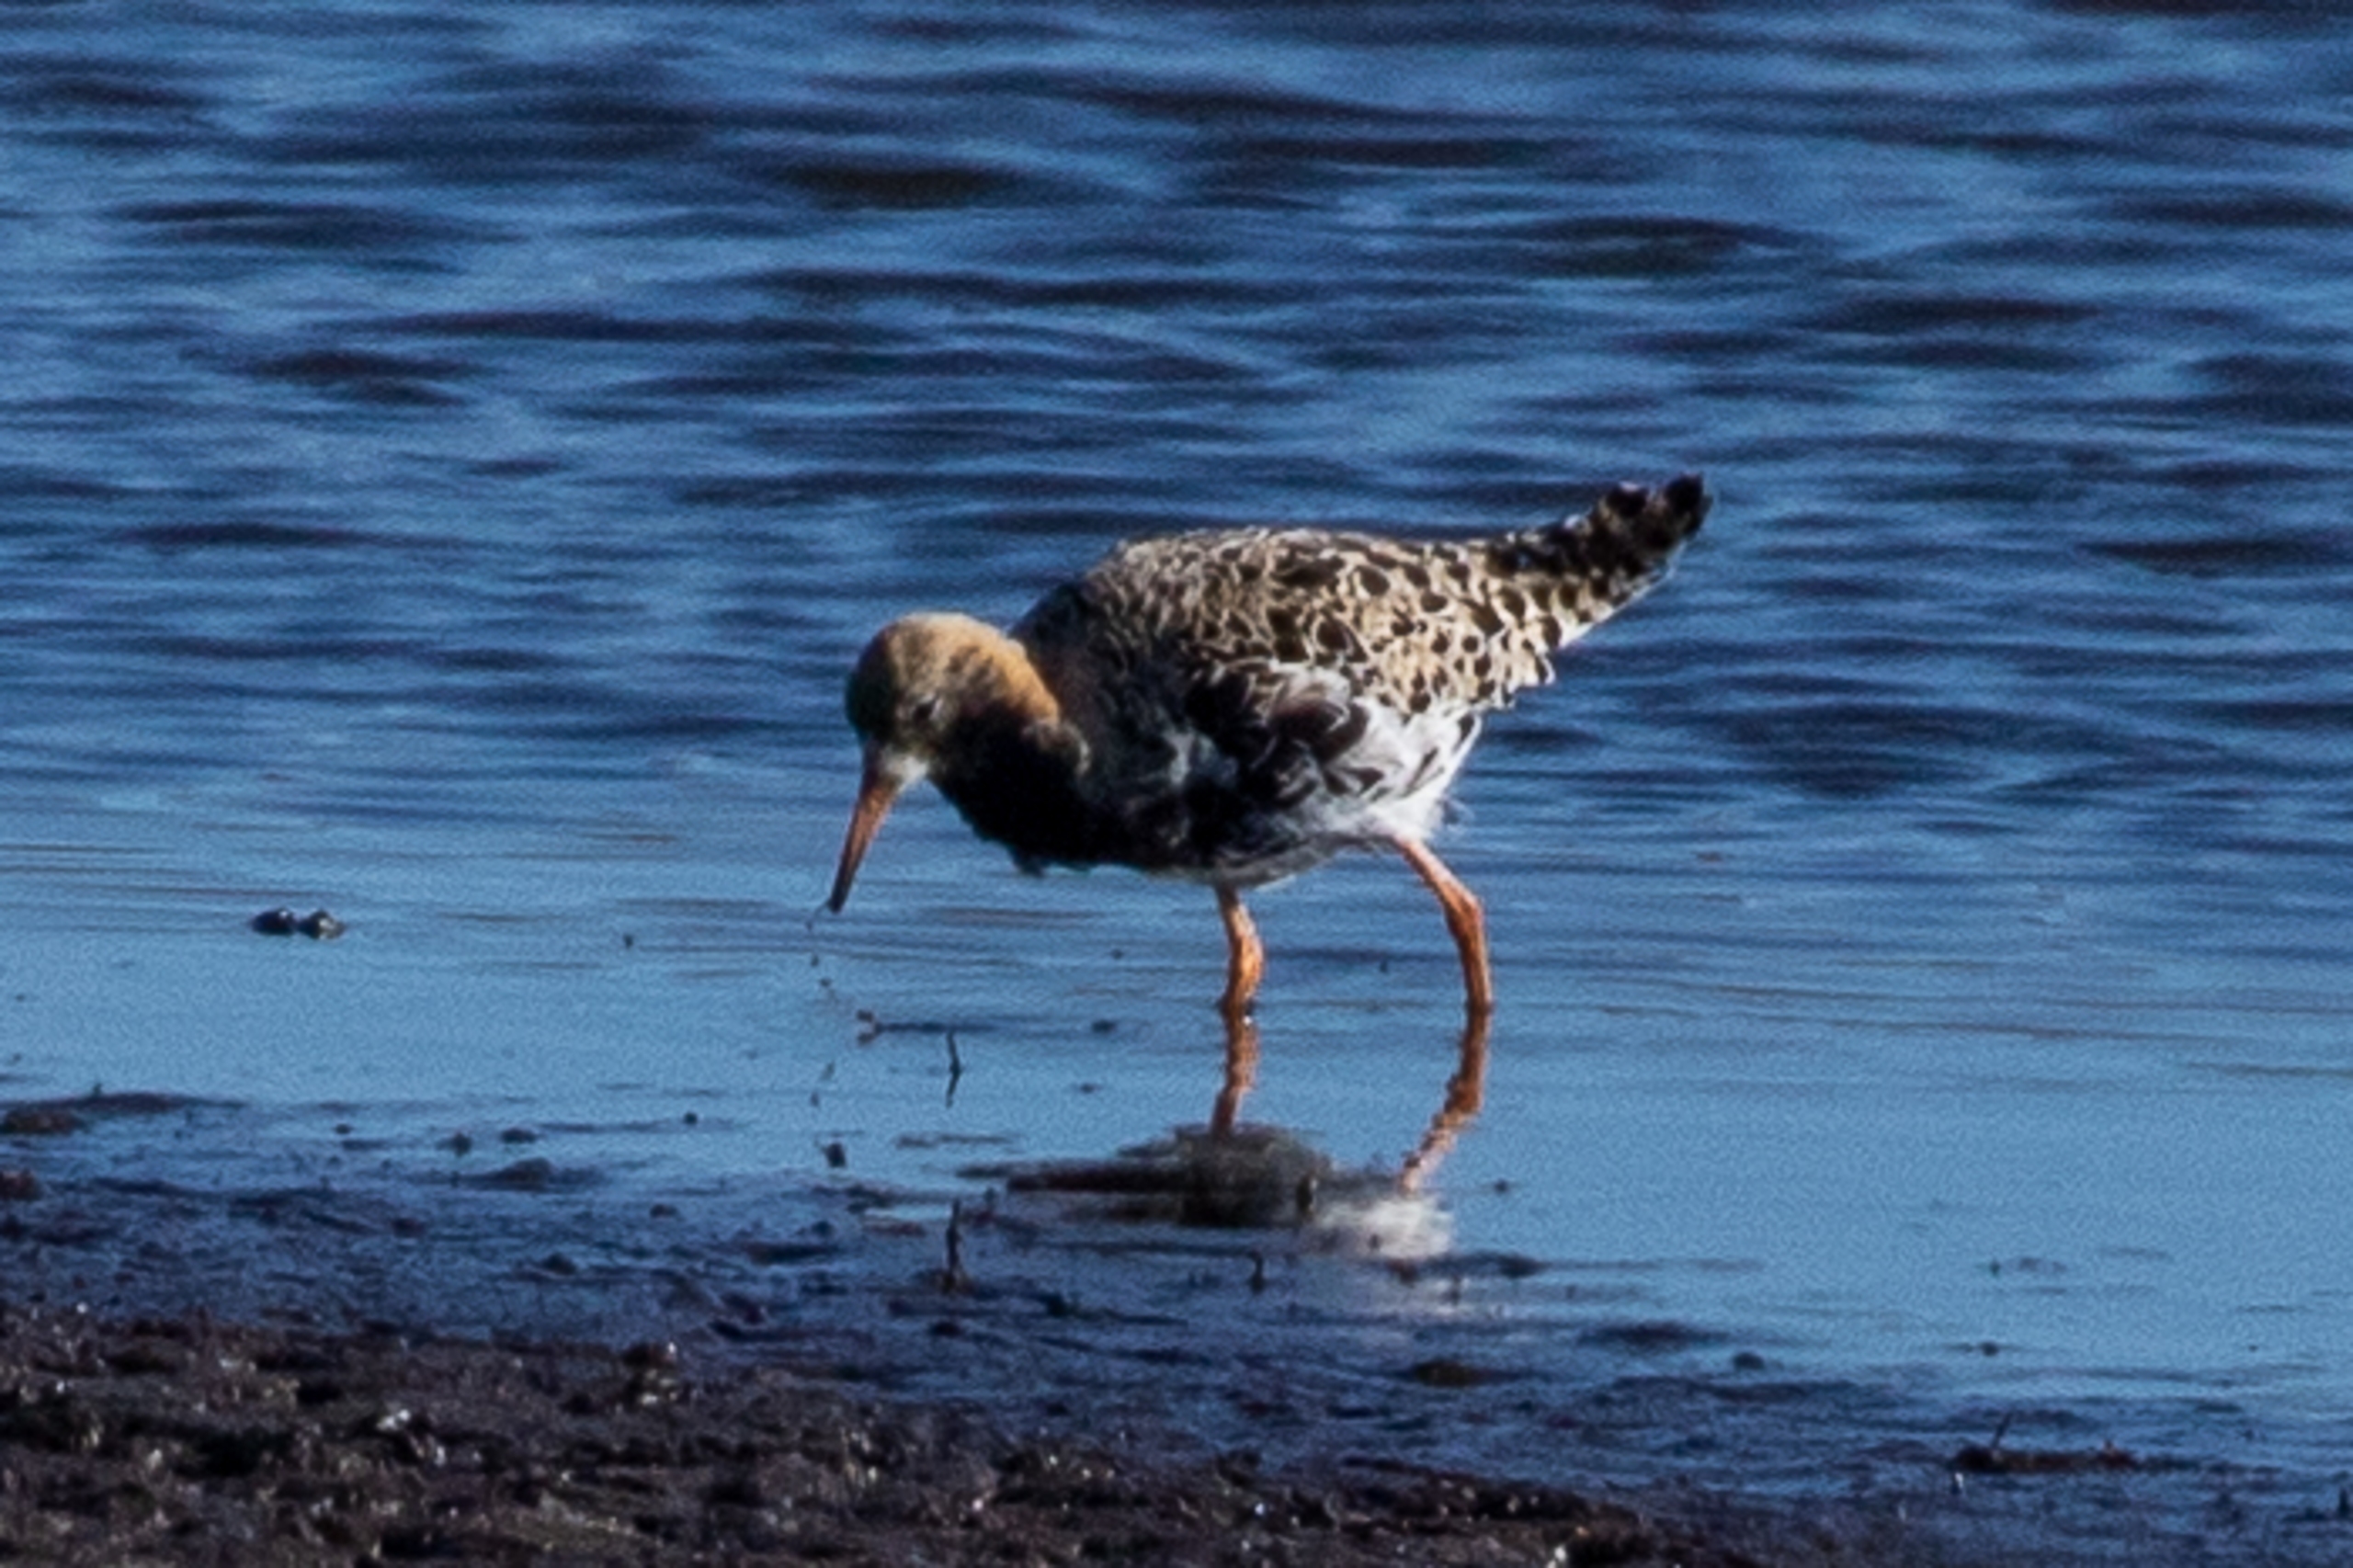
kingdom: Animalia
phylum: Chordata
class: Aves
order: Charadriiformes
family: Scolopacidae
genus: Calidris
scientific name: Calidris pugnax
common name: Brushane
